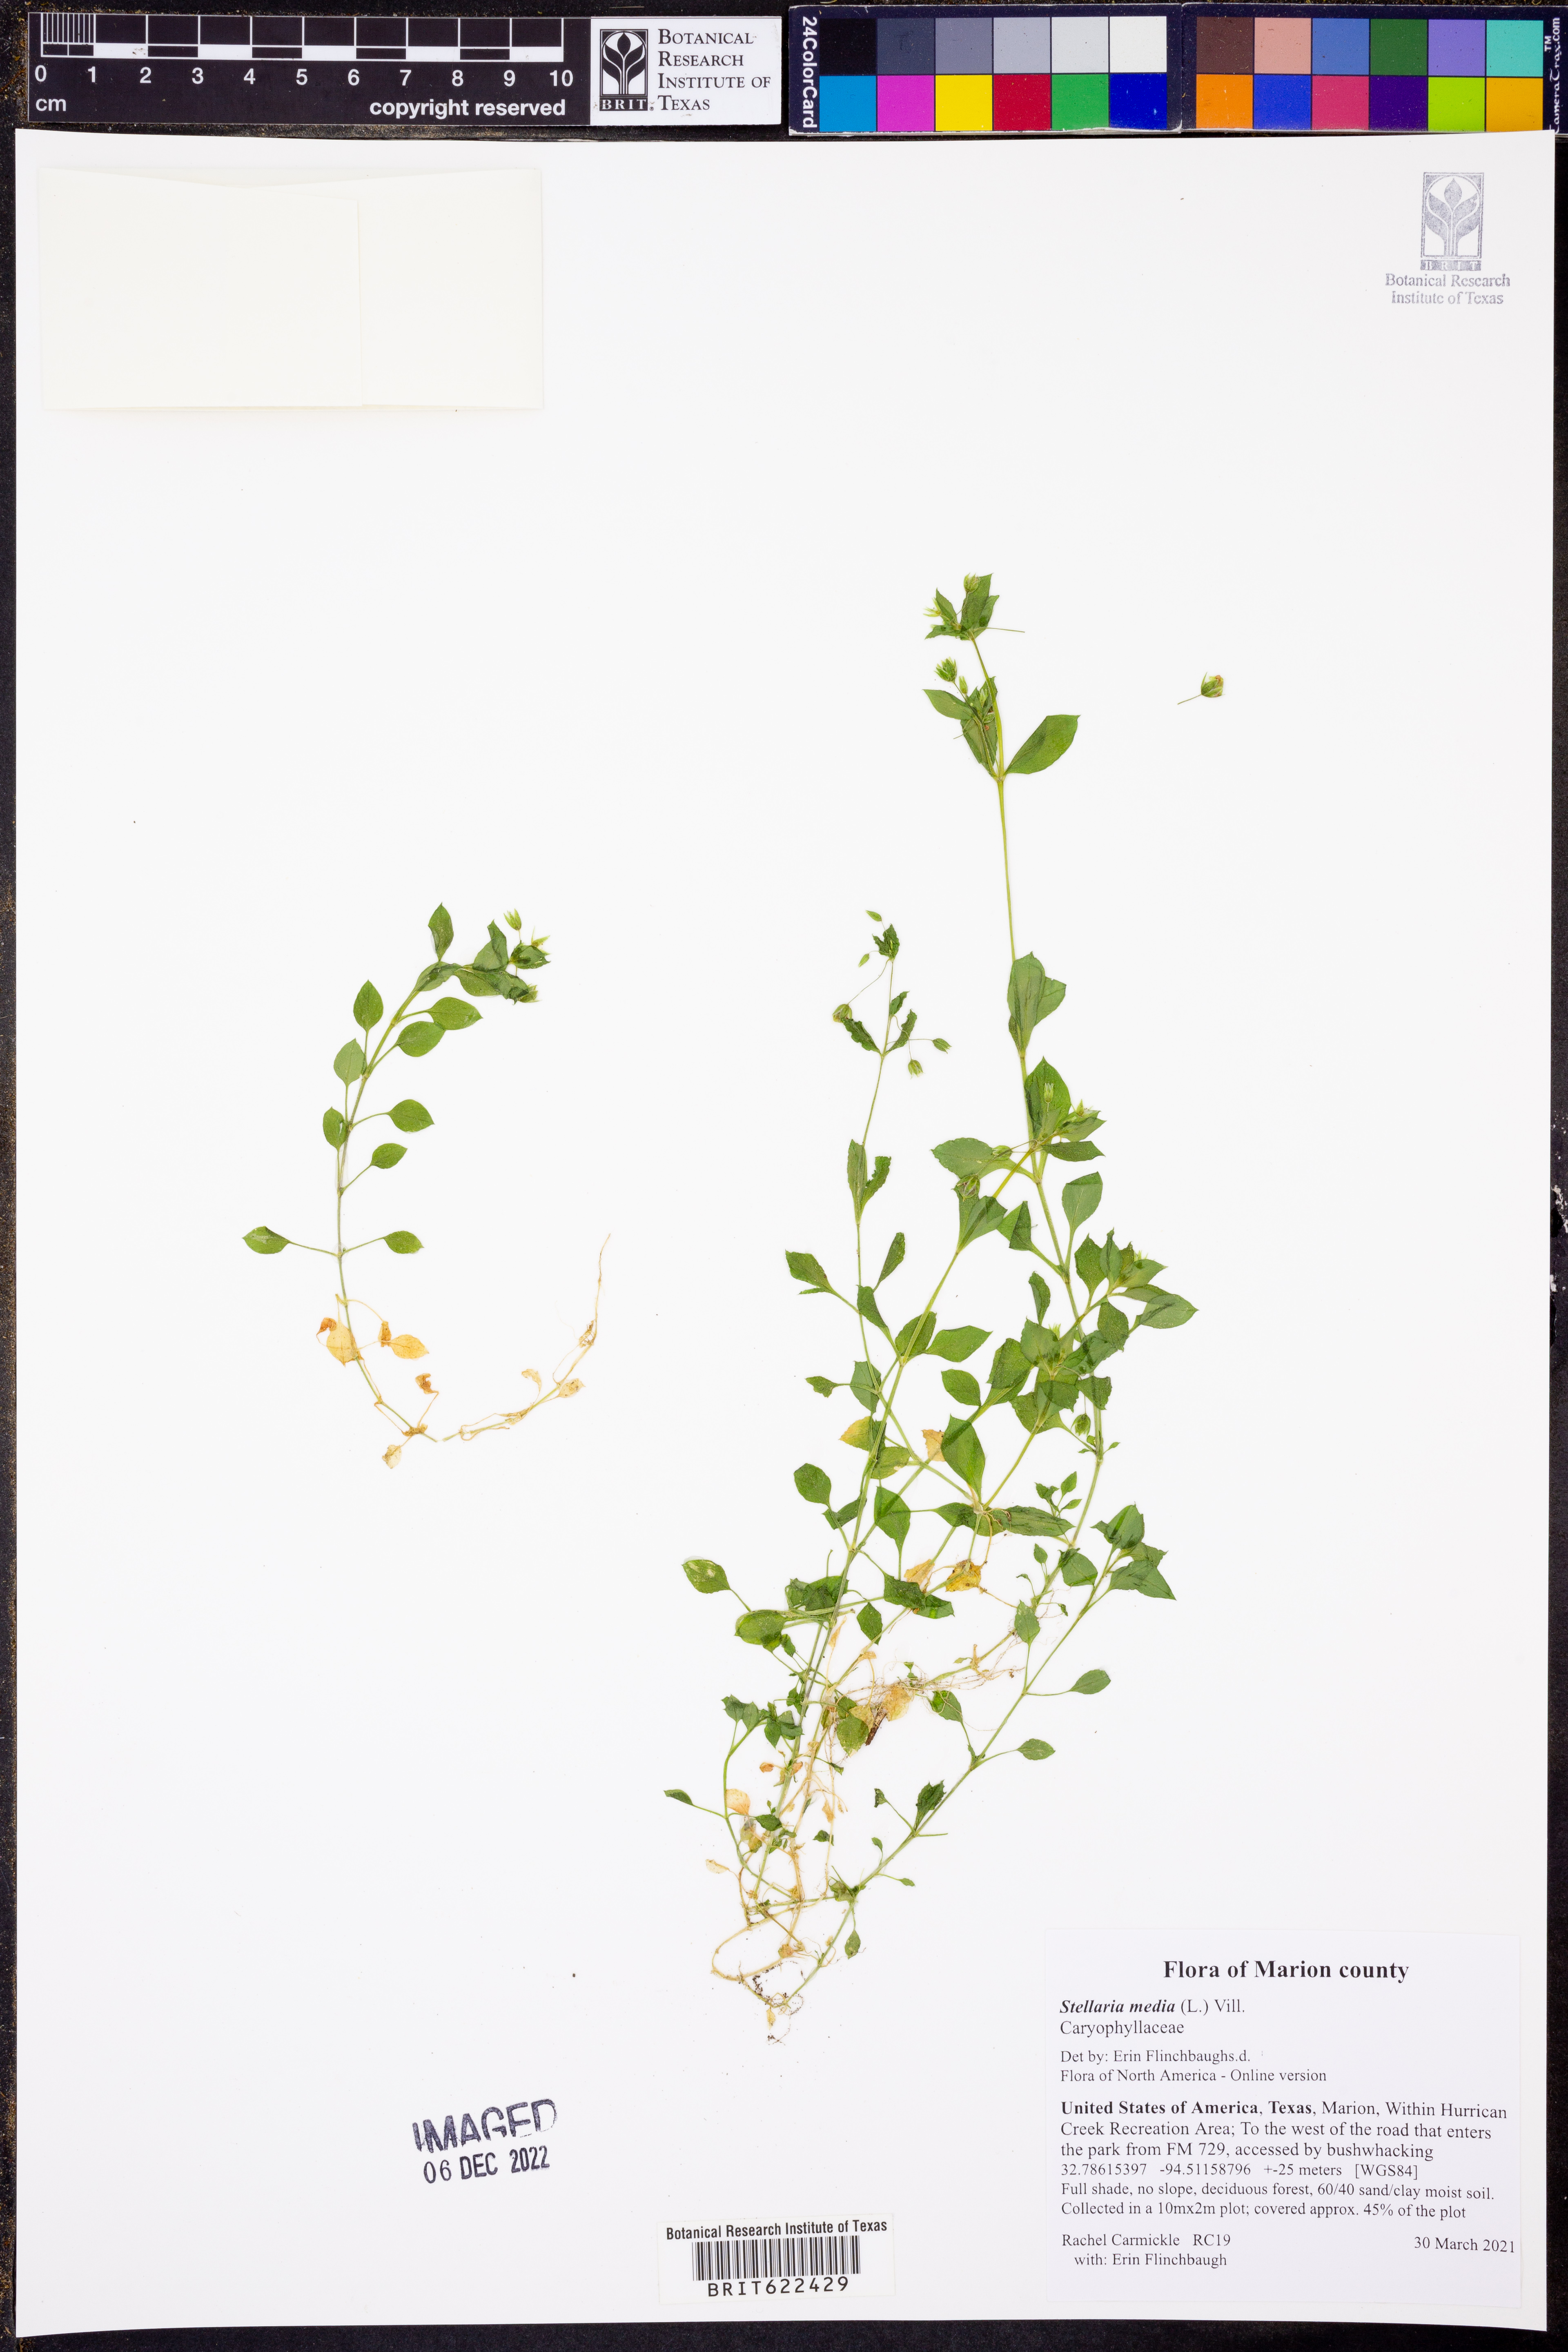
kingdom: Plantae
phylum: Tracheophyta
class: Magnoliopsida
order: Caryophyllales
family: Caryophyllaceae
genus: Stellaria
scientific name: Stellaria media
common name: Common chickweed
